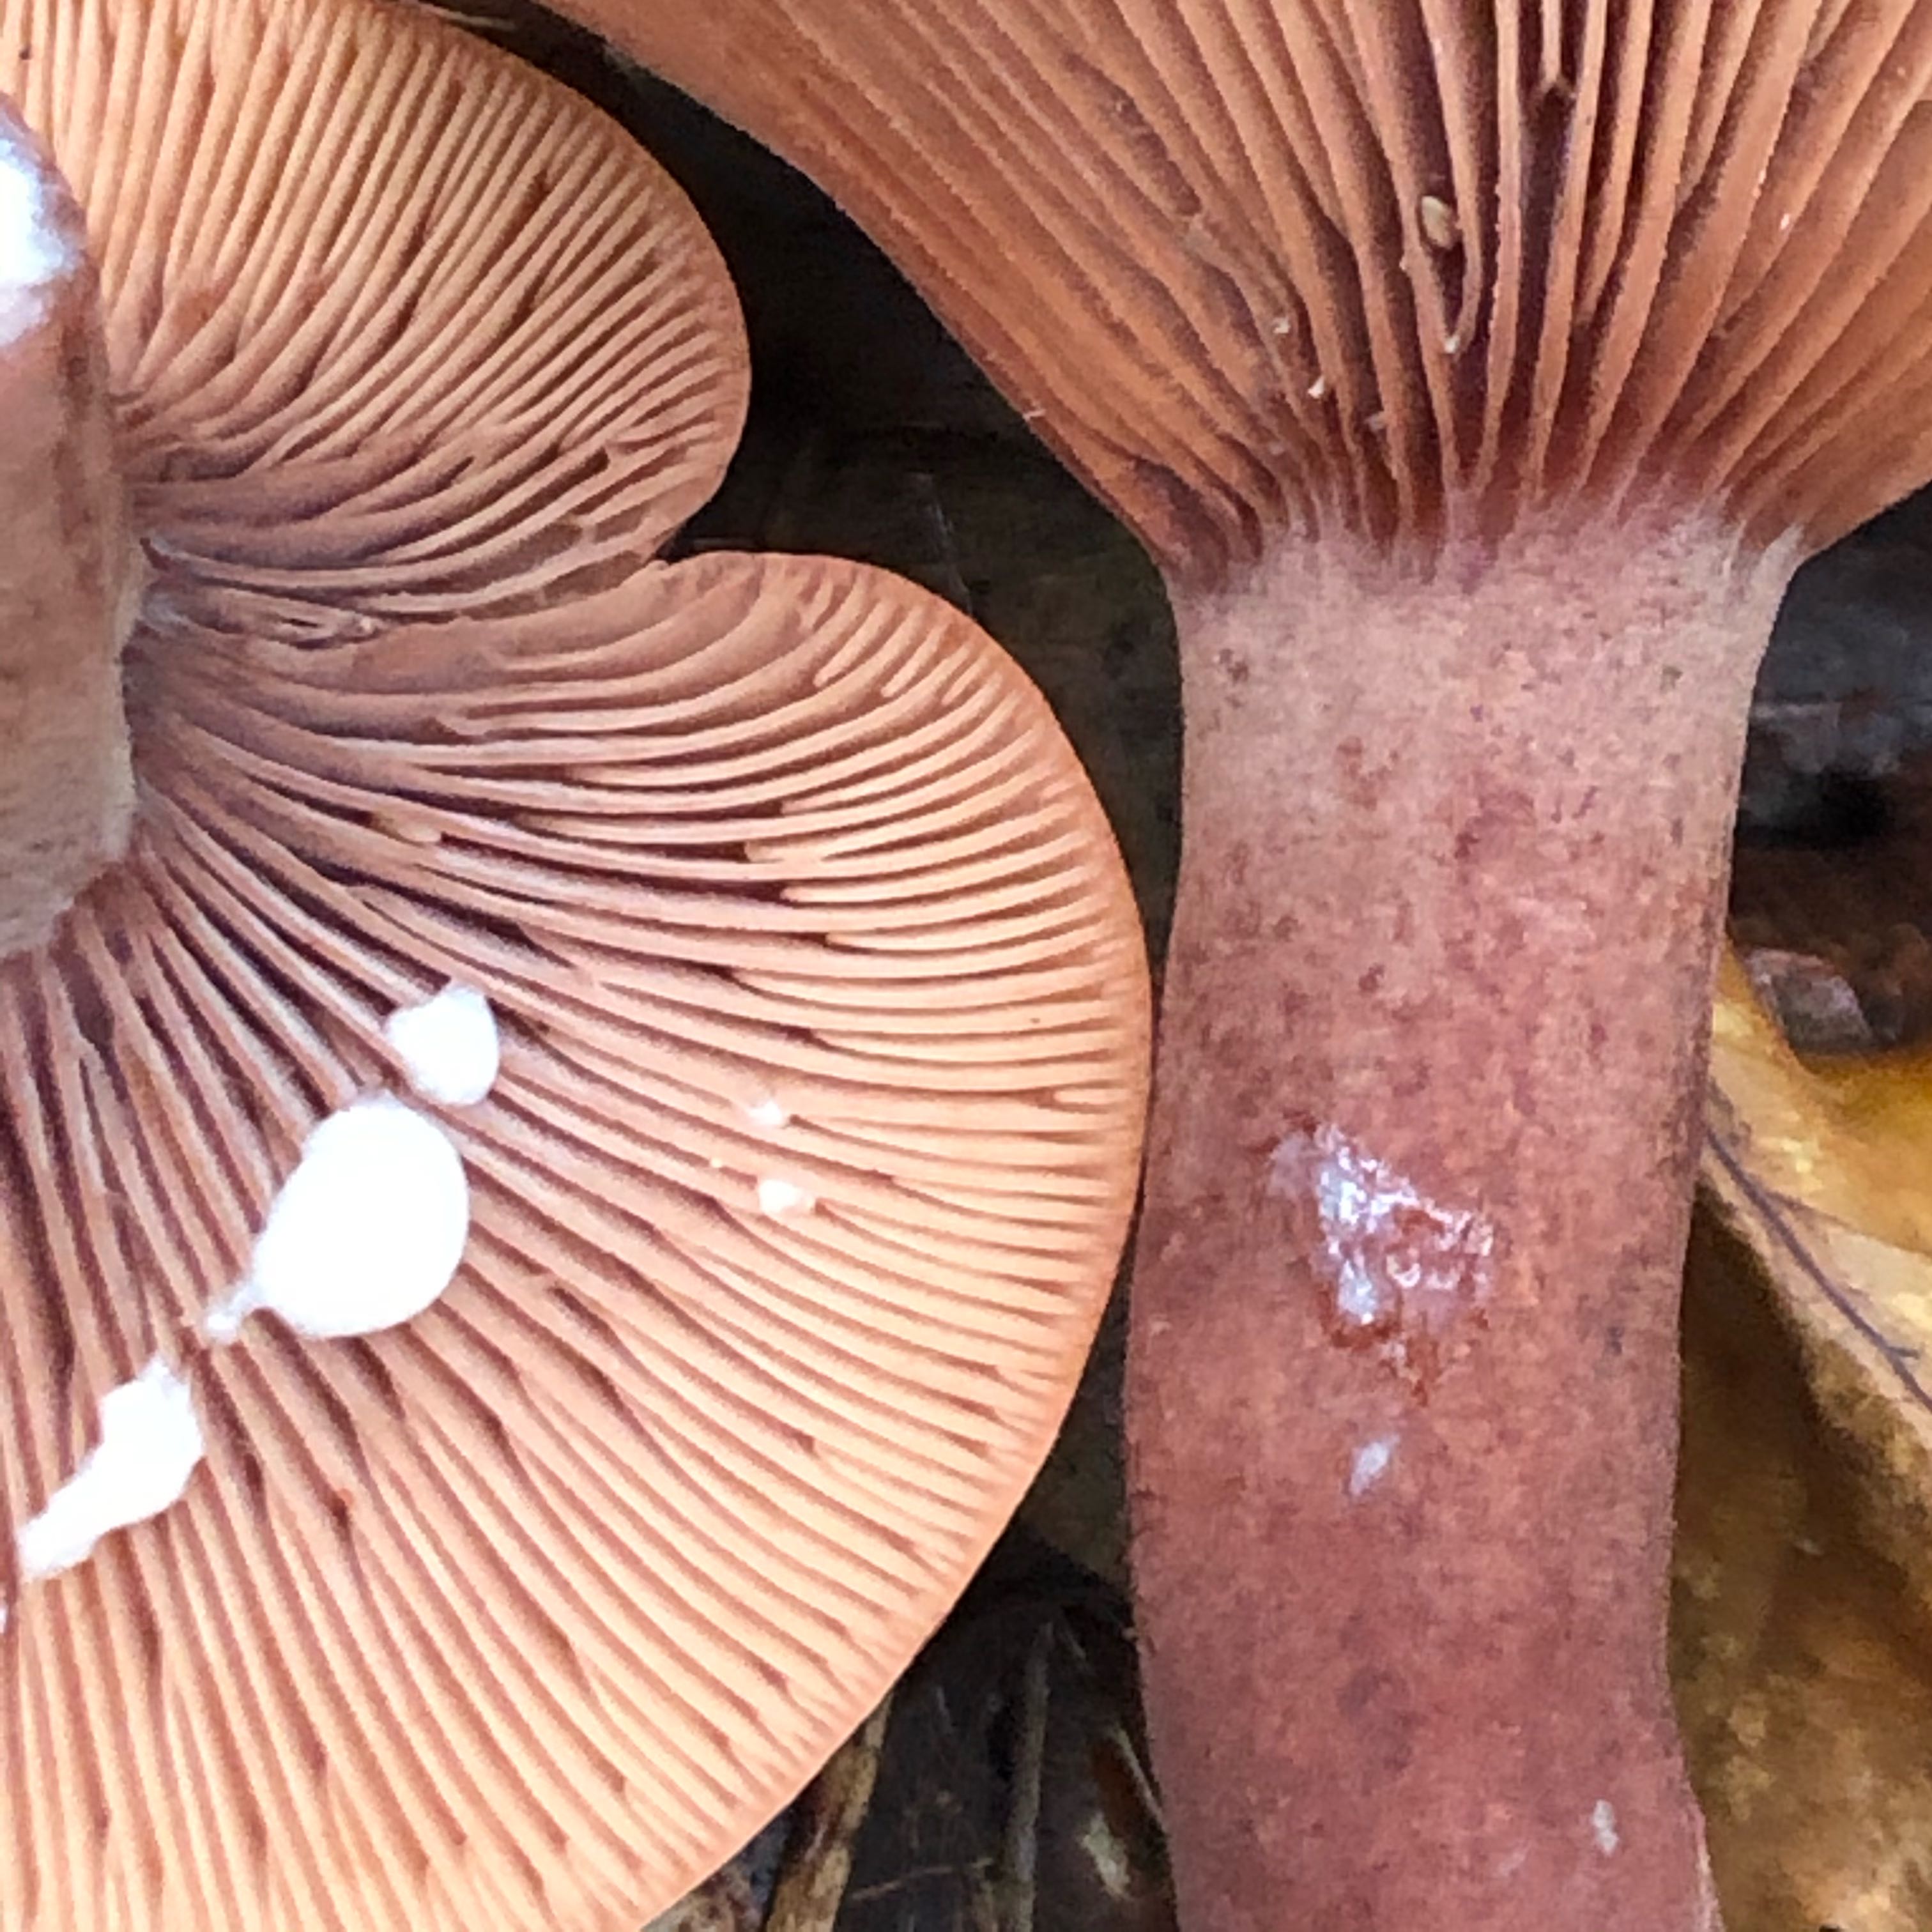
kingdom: Fungi
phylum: Basidiomycota
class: Agaricomycetes
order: Russulales
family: Russulaceae
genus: Lactarius
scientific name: Lactarius camphoratus
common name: kamfer-mælkehat
